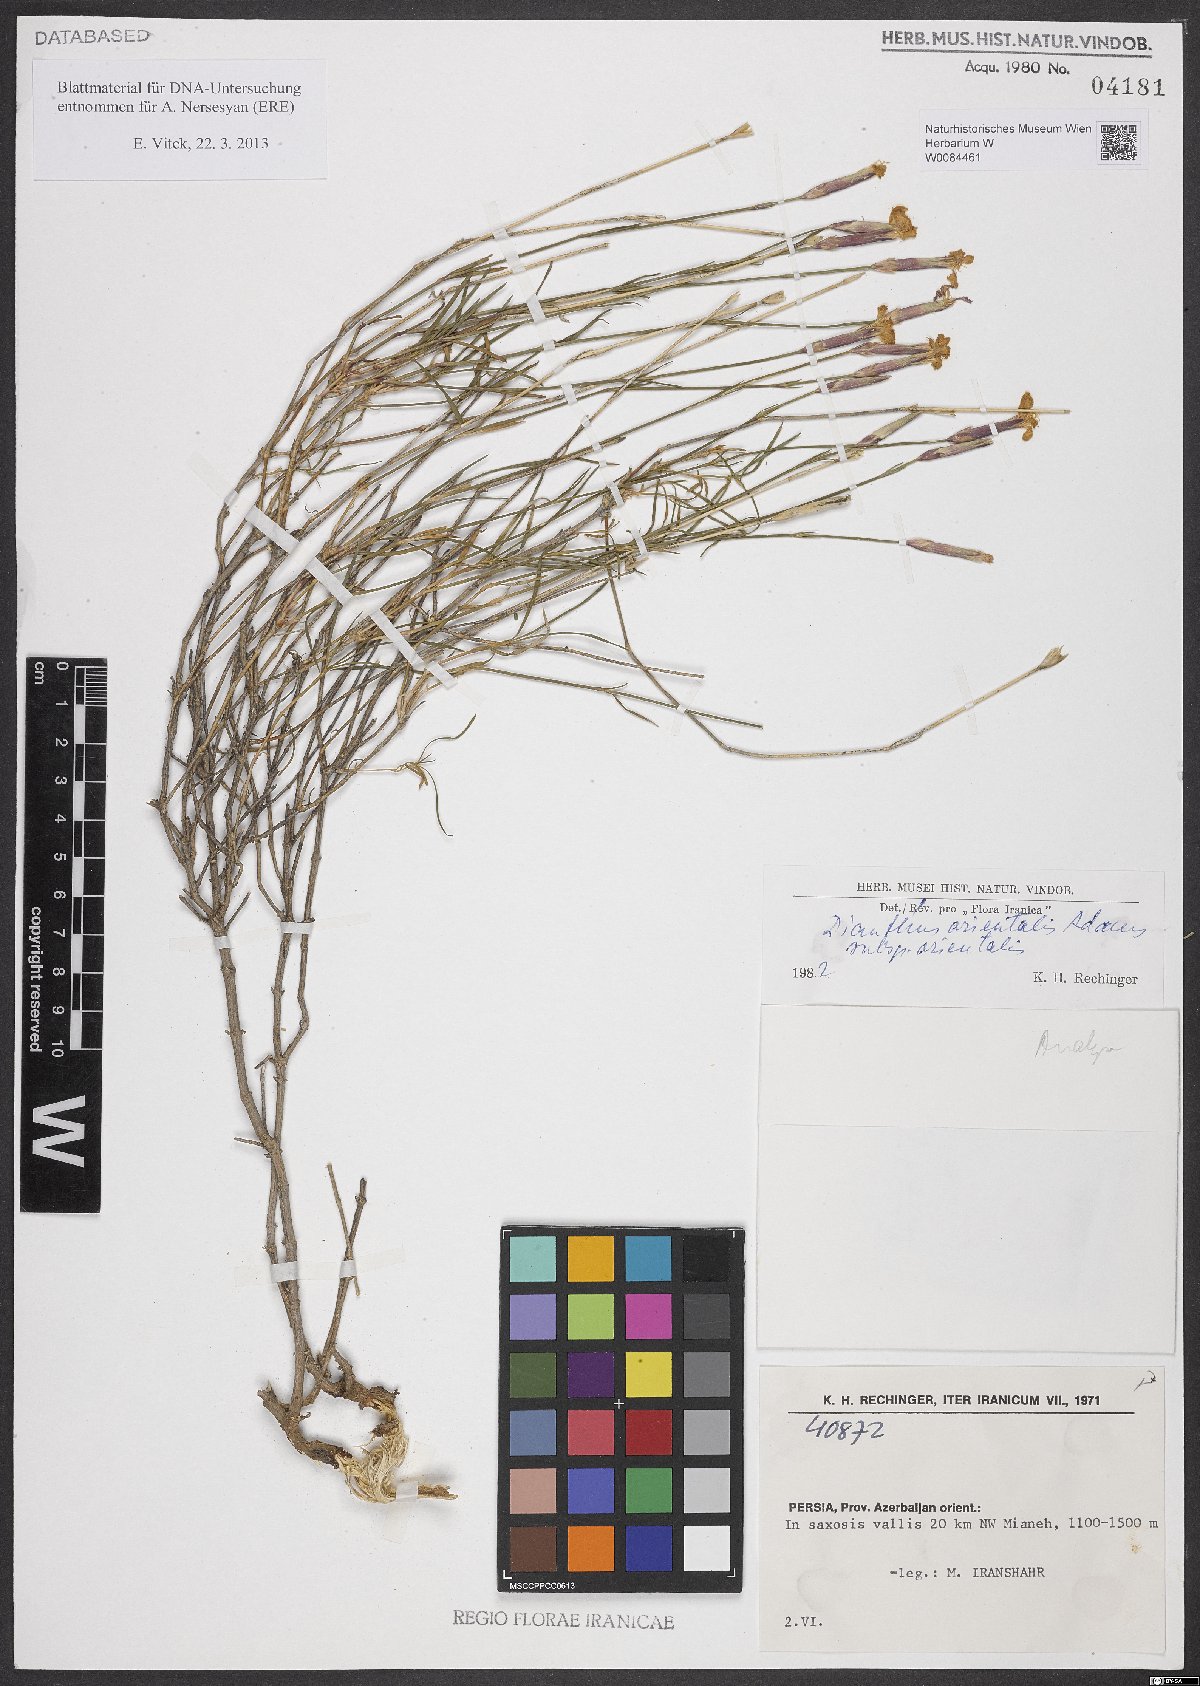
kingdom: Plantae
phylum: Tracheophyta
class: Magnoliopsida
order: Caryophyllales
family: Caryophyllaceae
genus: Dianthus
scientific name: Dianthus orientalis
